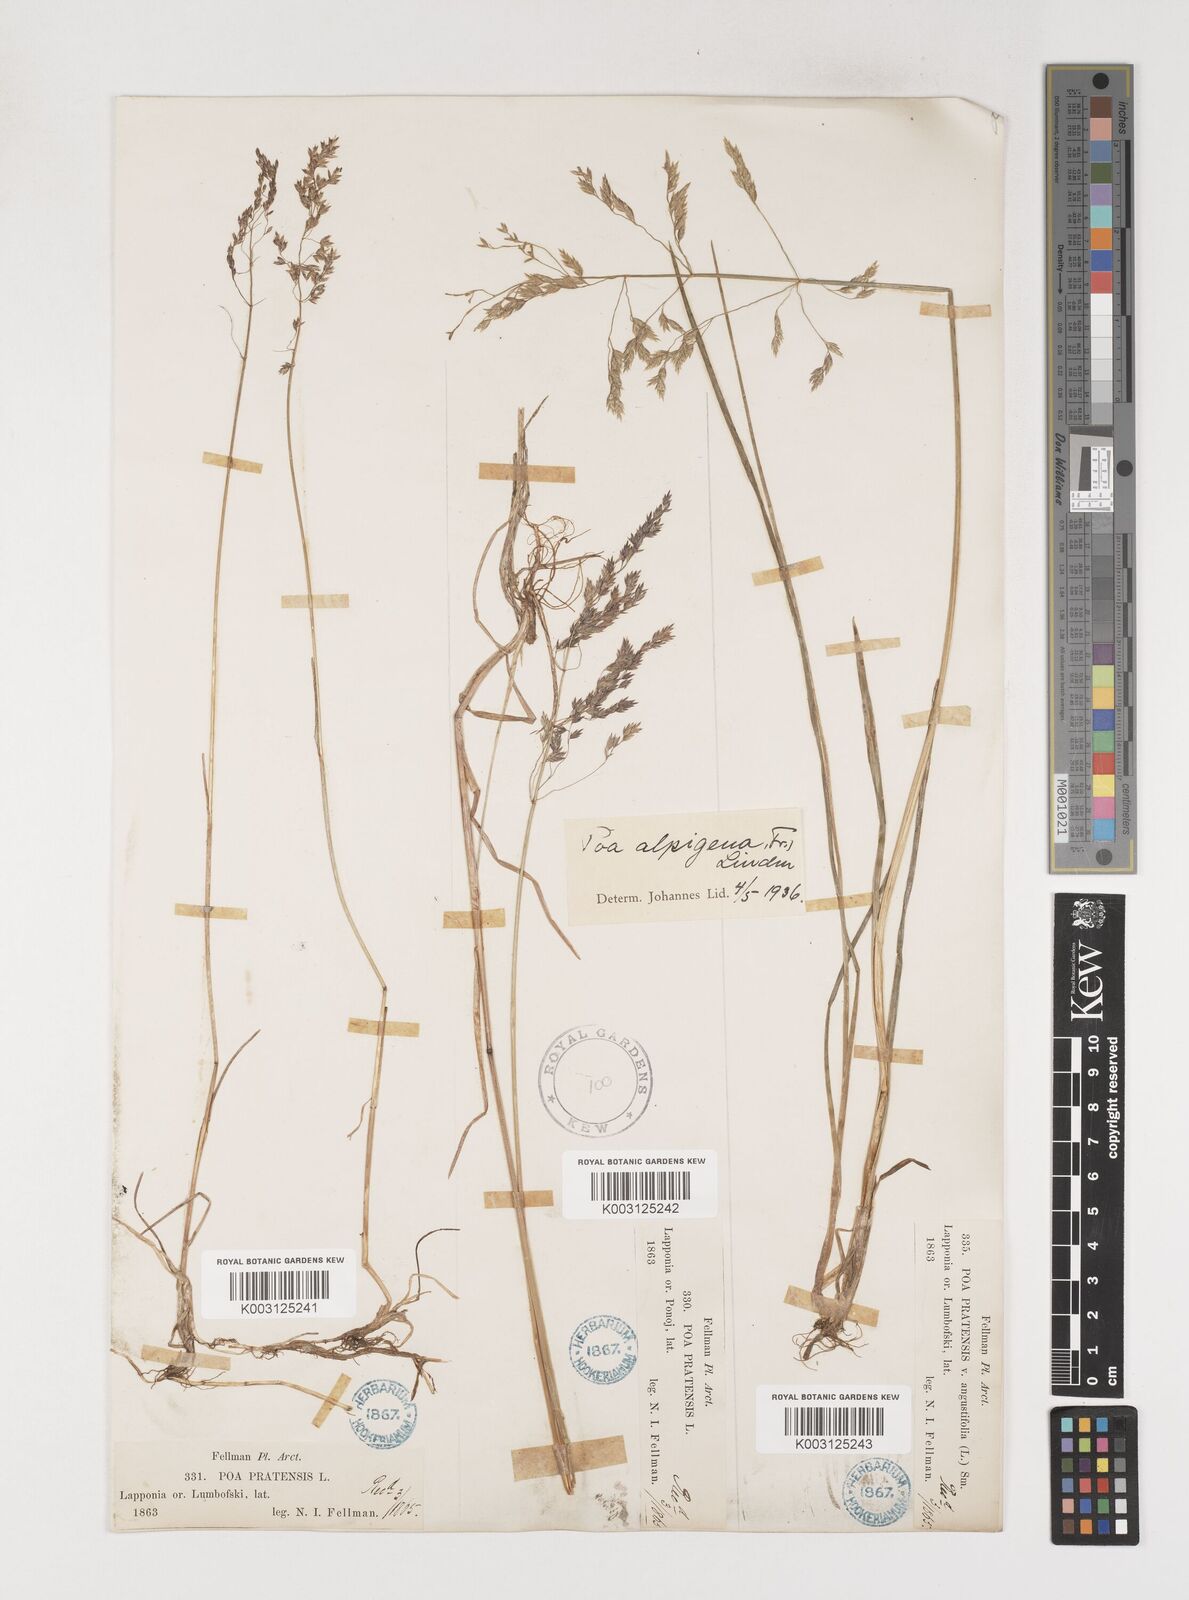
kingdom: Plantae
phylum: Tracheophyta
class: Liliopsida
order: Poales
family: Poaceae
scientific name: Poaceae
